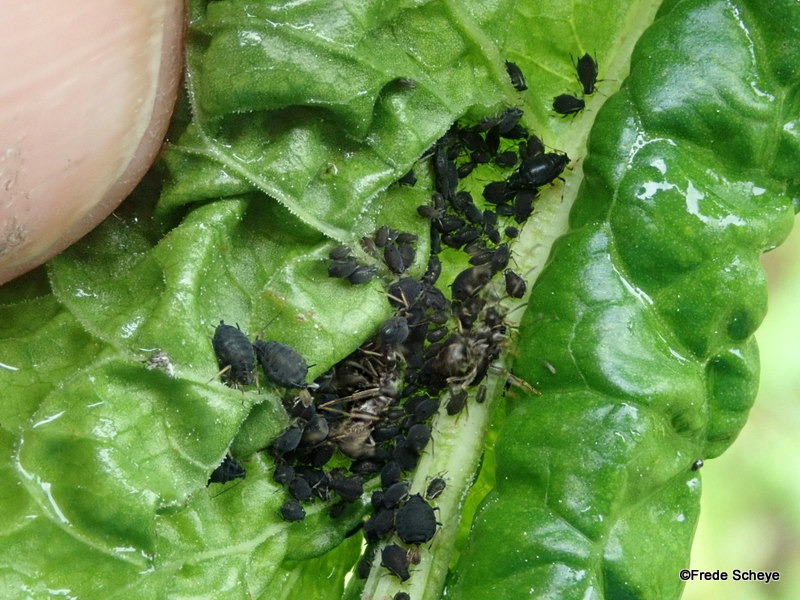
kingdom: Animalia
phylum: Arthropoda
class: Insecta
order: Hemiptera
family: Aphididae
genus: Aphis
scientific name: Aphis rumicis
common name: Skræppebladlus
